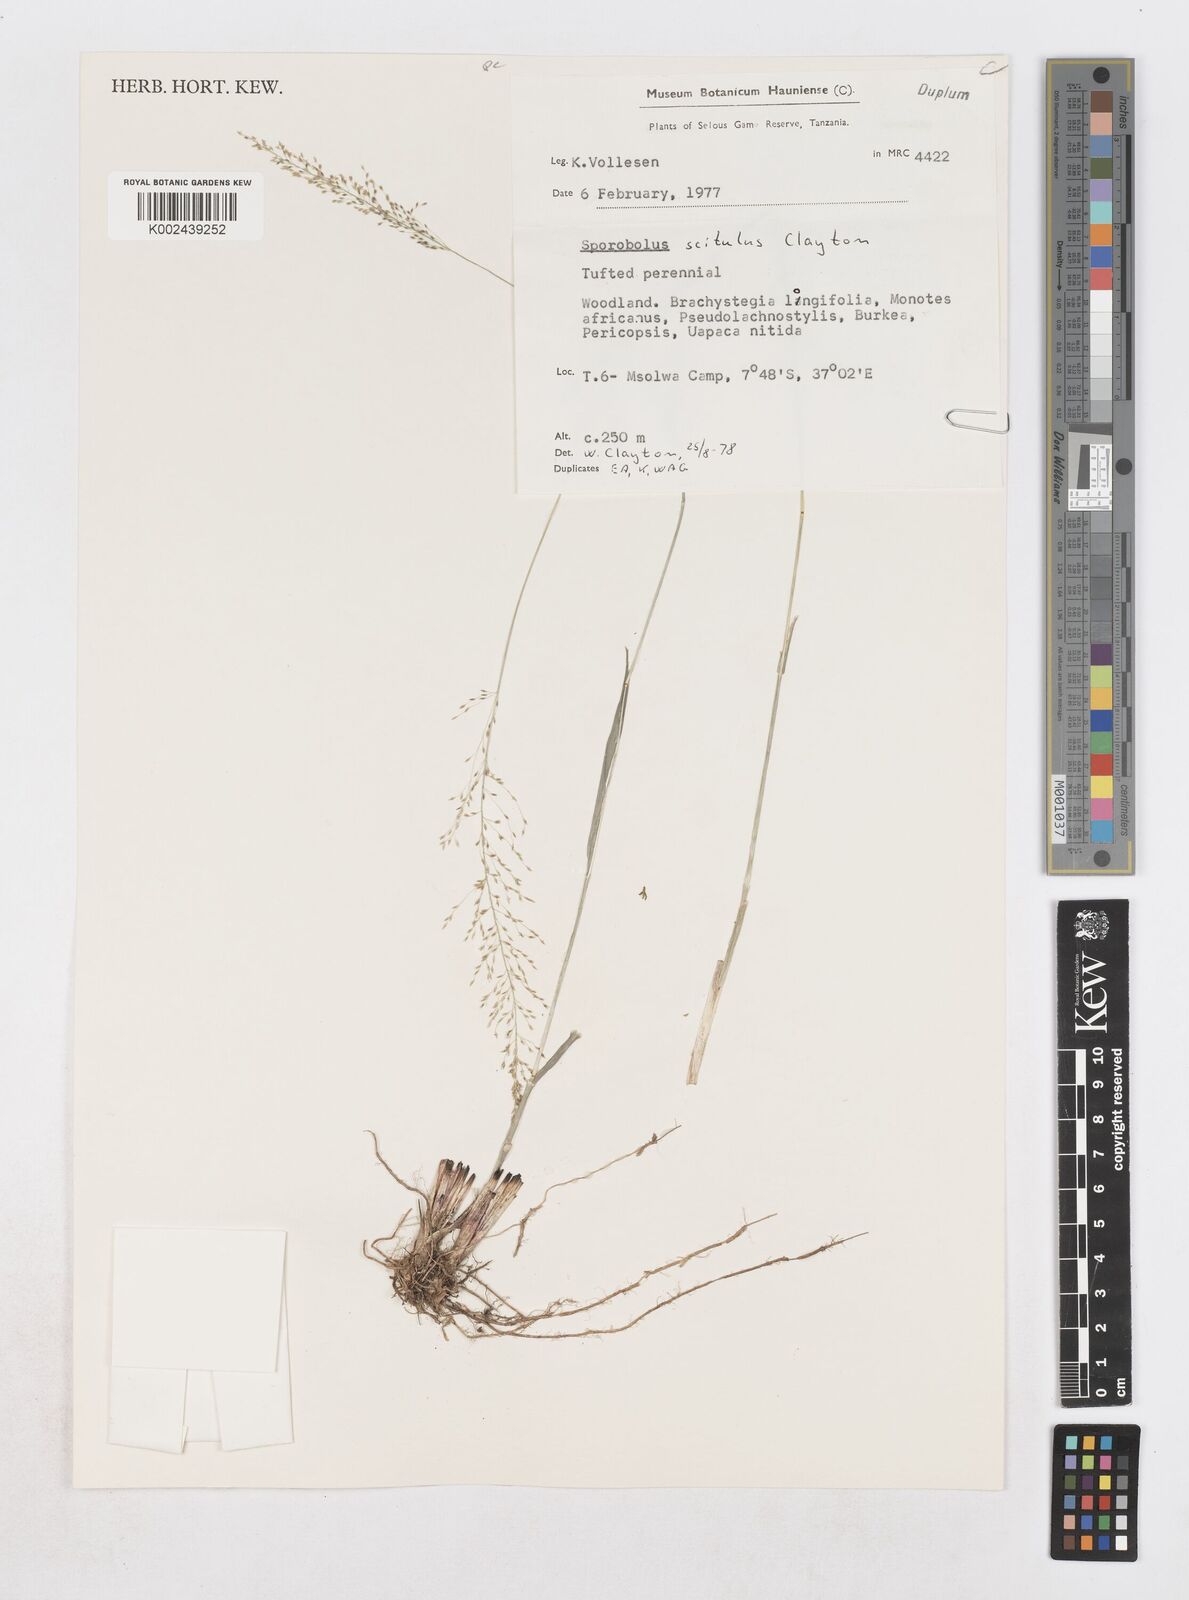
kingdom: Plantae
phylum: Tracheophyta
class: Liliopsida
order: Poales
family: Poaceae
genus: Sporobolus
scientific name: Sporobolus scitulus
